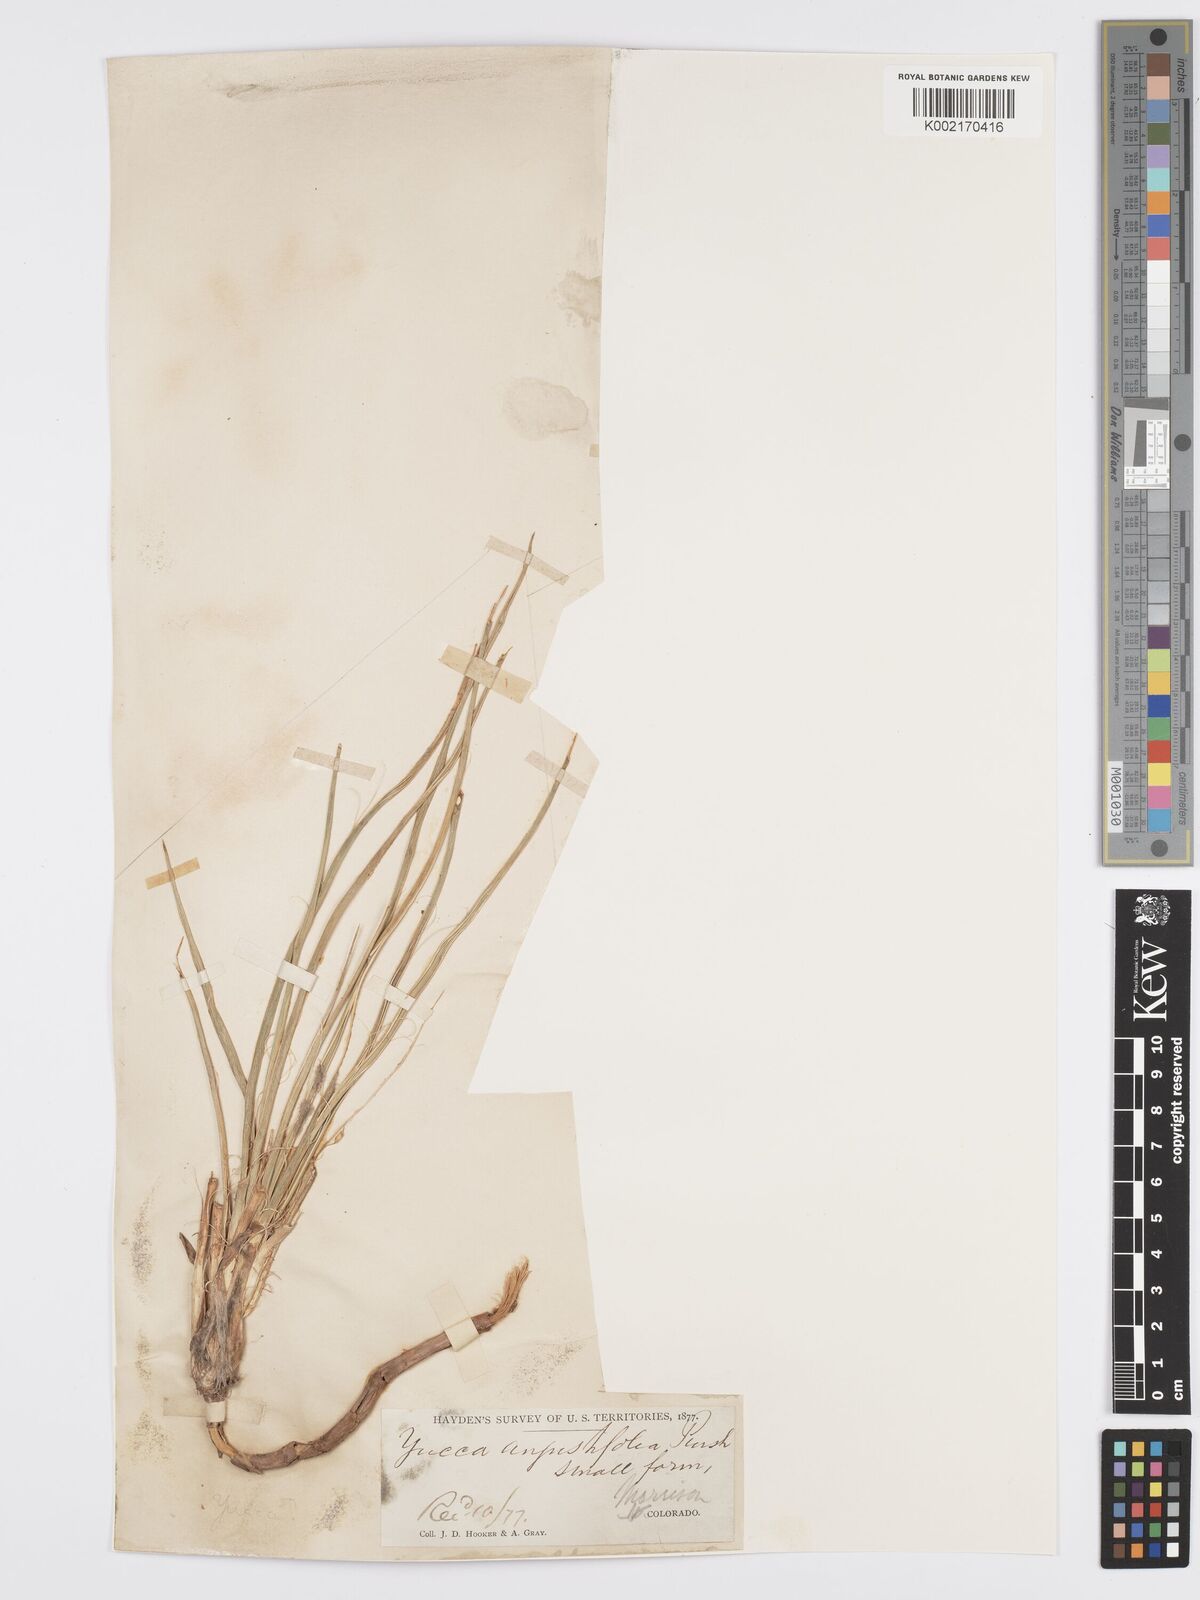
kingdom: Plantae
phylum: Tracheophyta
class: Liliopsida
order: Asparagales
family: Asparagaceae
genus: Yucca
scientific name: Yucca glauca
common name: Great plains yucca
